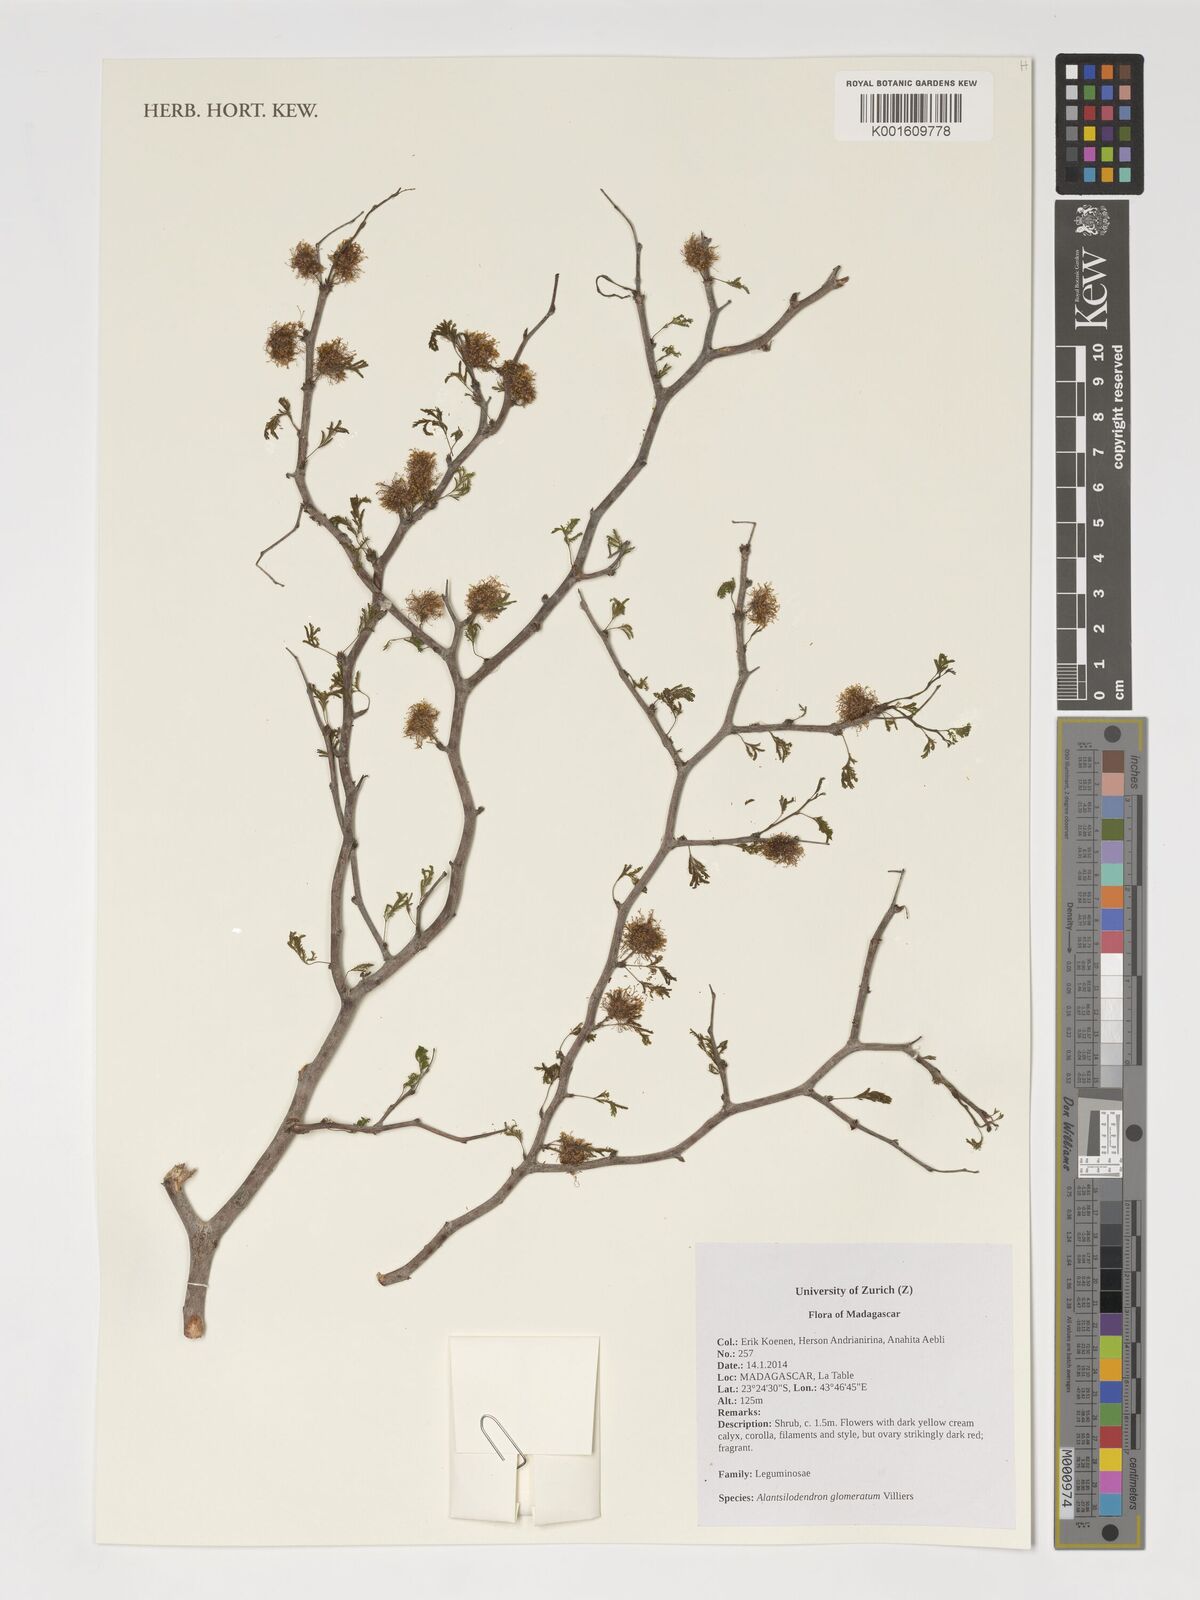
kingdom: Plantae
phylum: Tracheophyta
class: Magnoliopsida
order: Fabales
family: Fabaceae
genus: Alantsilodendron
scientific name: Alantsilodendron glomeratum
